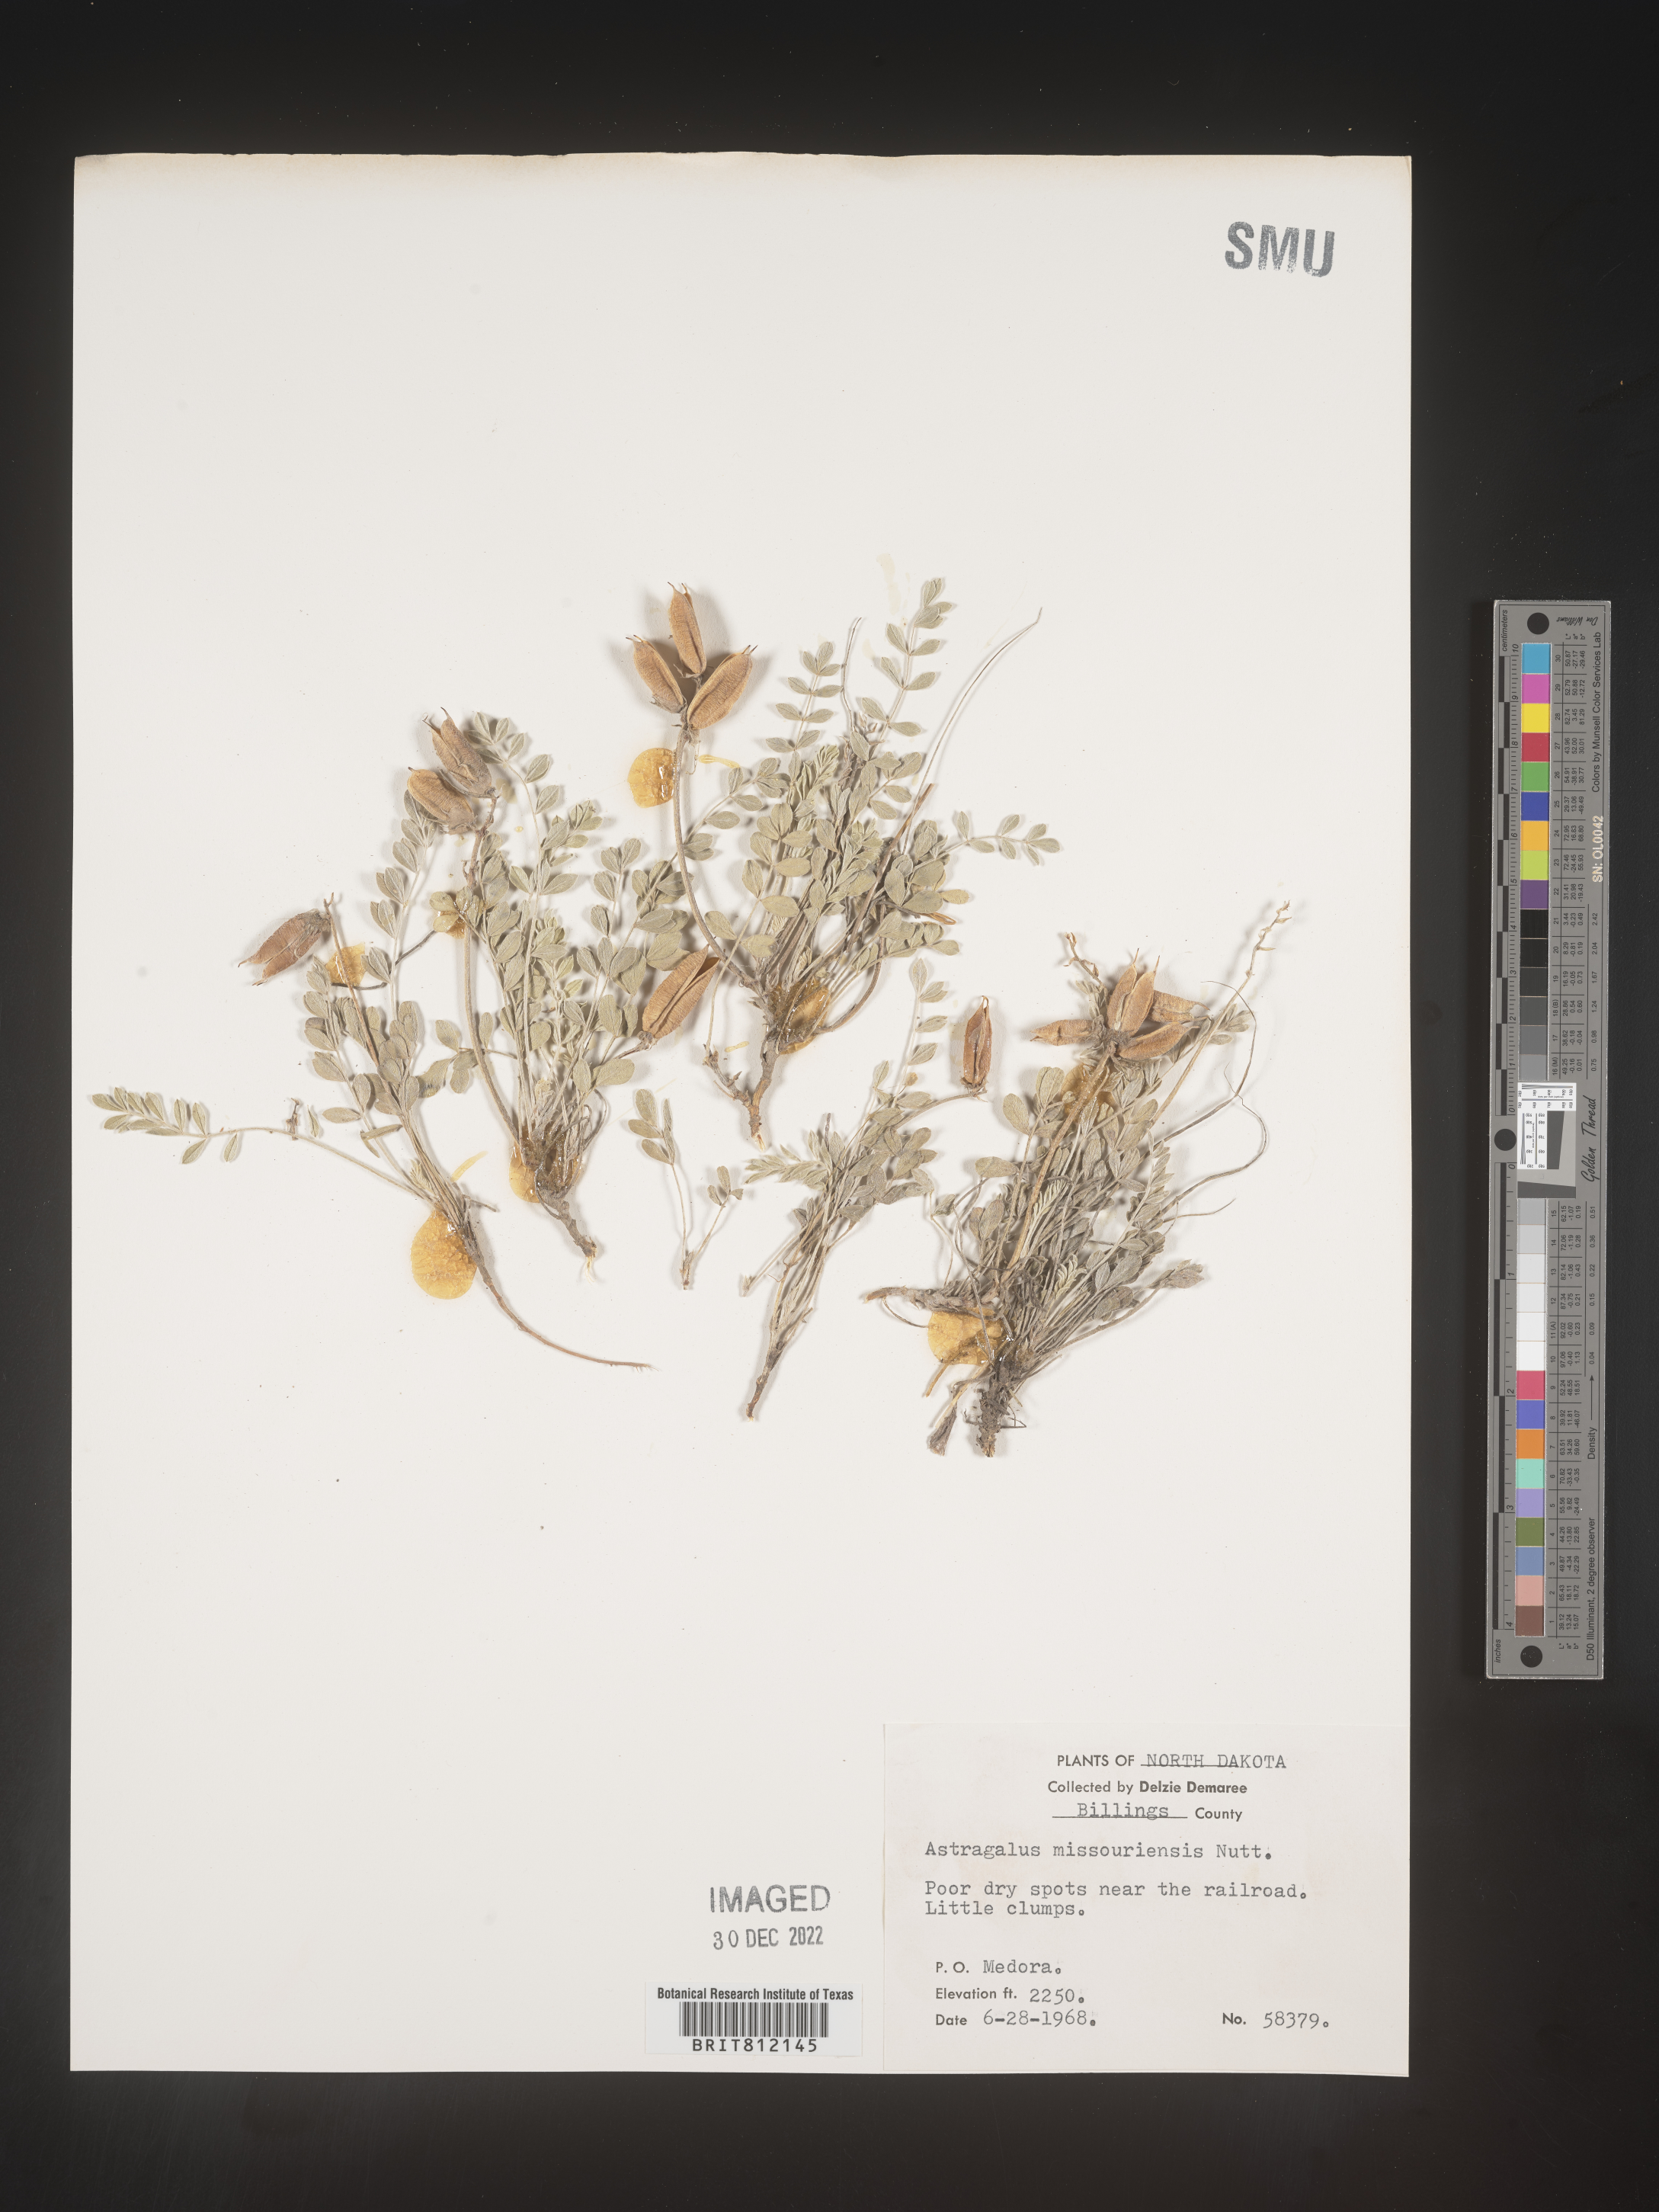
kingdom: Plantae
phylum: Tracheophyta
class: Magnoliopsida
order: Fabales
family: Fabaceae
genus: Astragalus
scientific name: Astragalus missouriensis
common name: Missouri milk-vetch
